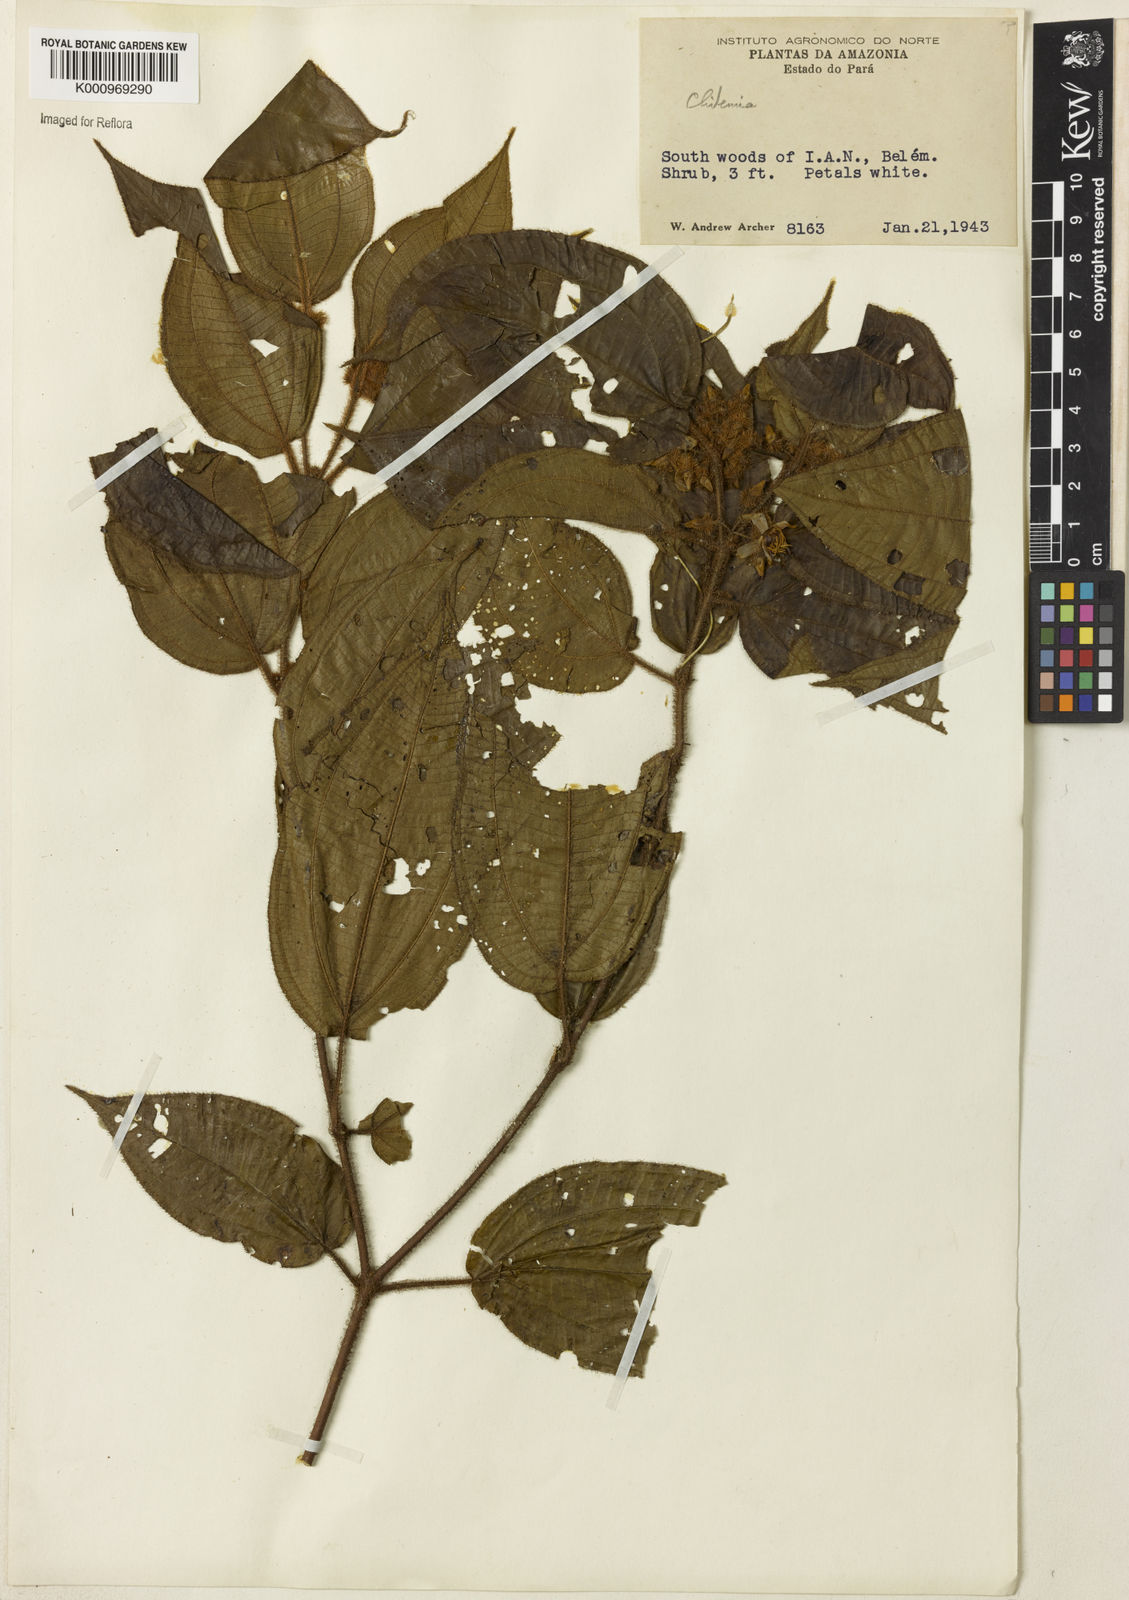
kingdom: Plantae
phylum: Tracheophyta
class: Magnoliopsida
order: Myrtales
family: Melastomataceae
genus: Miconia
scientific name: Miconia
